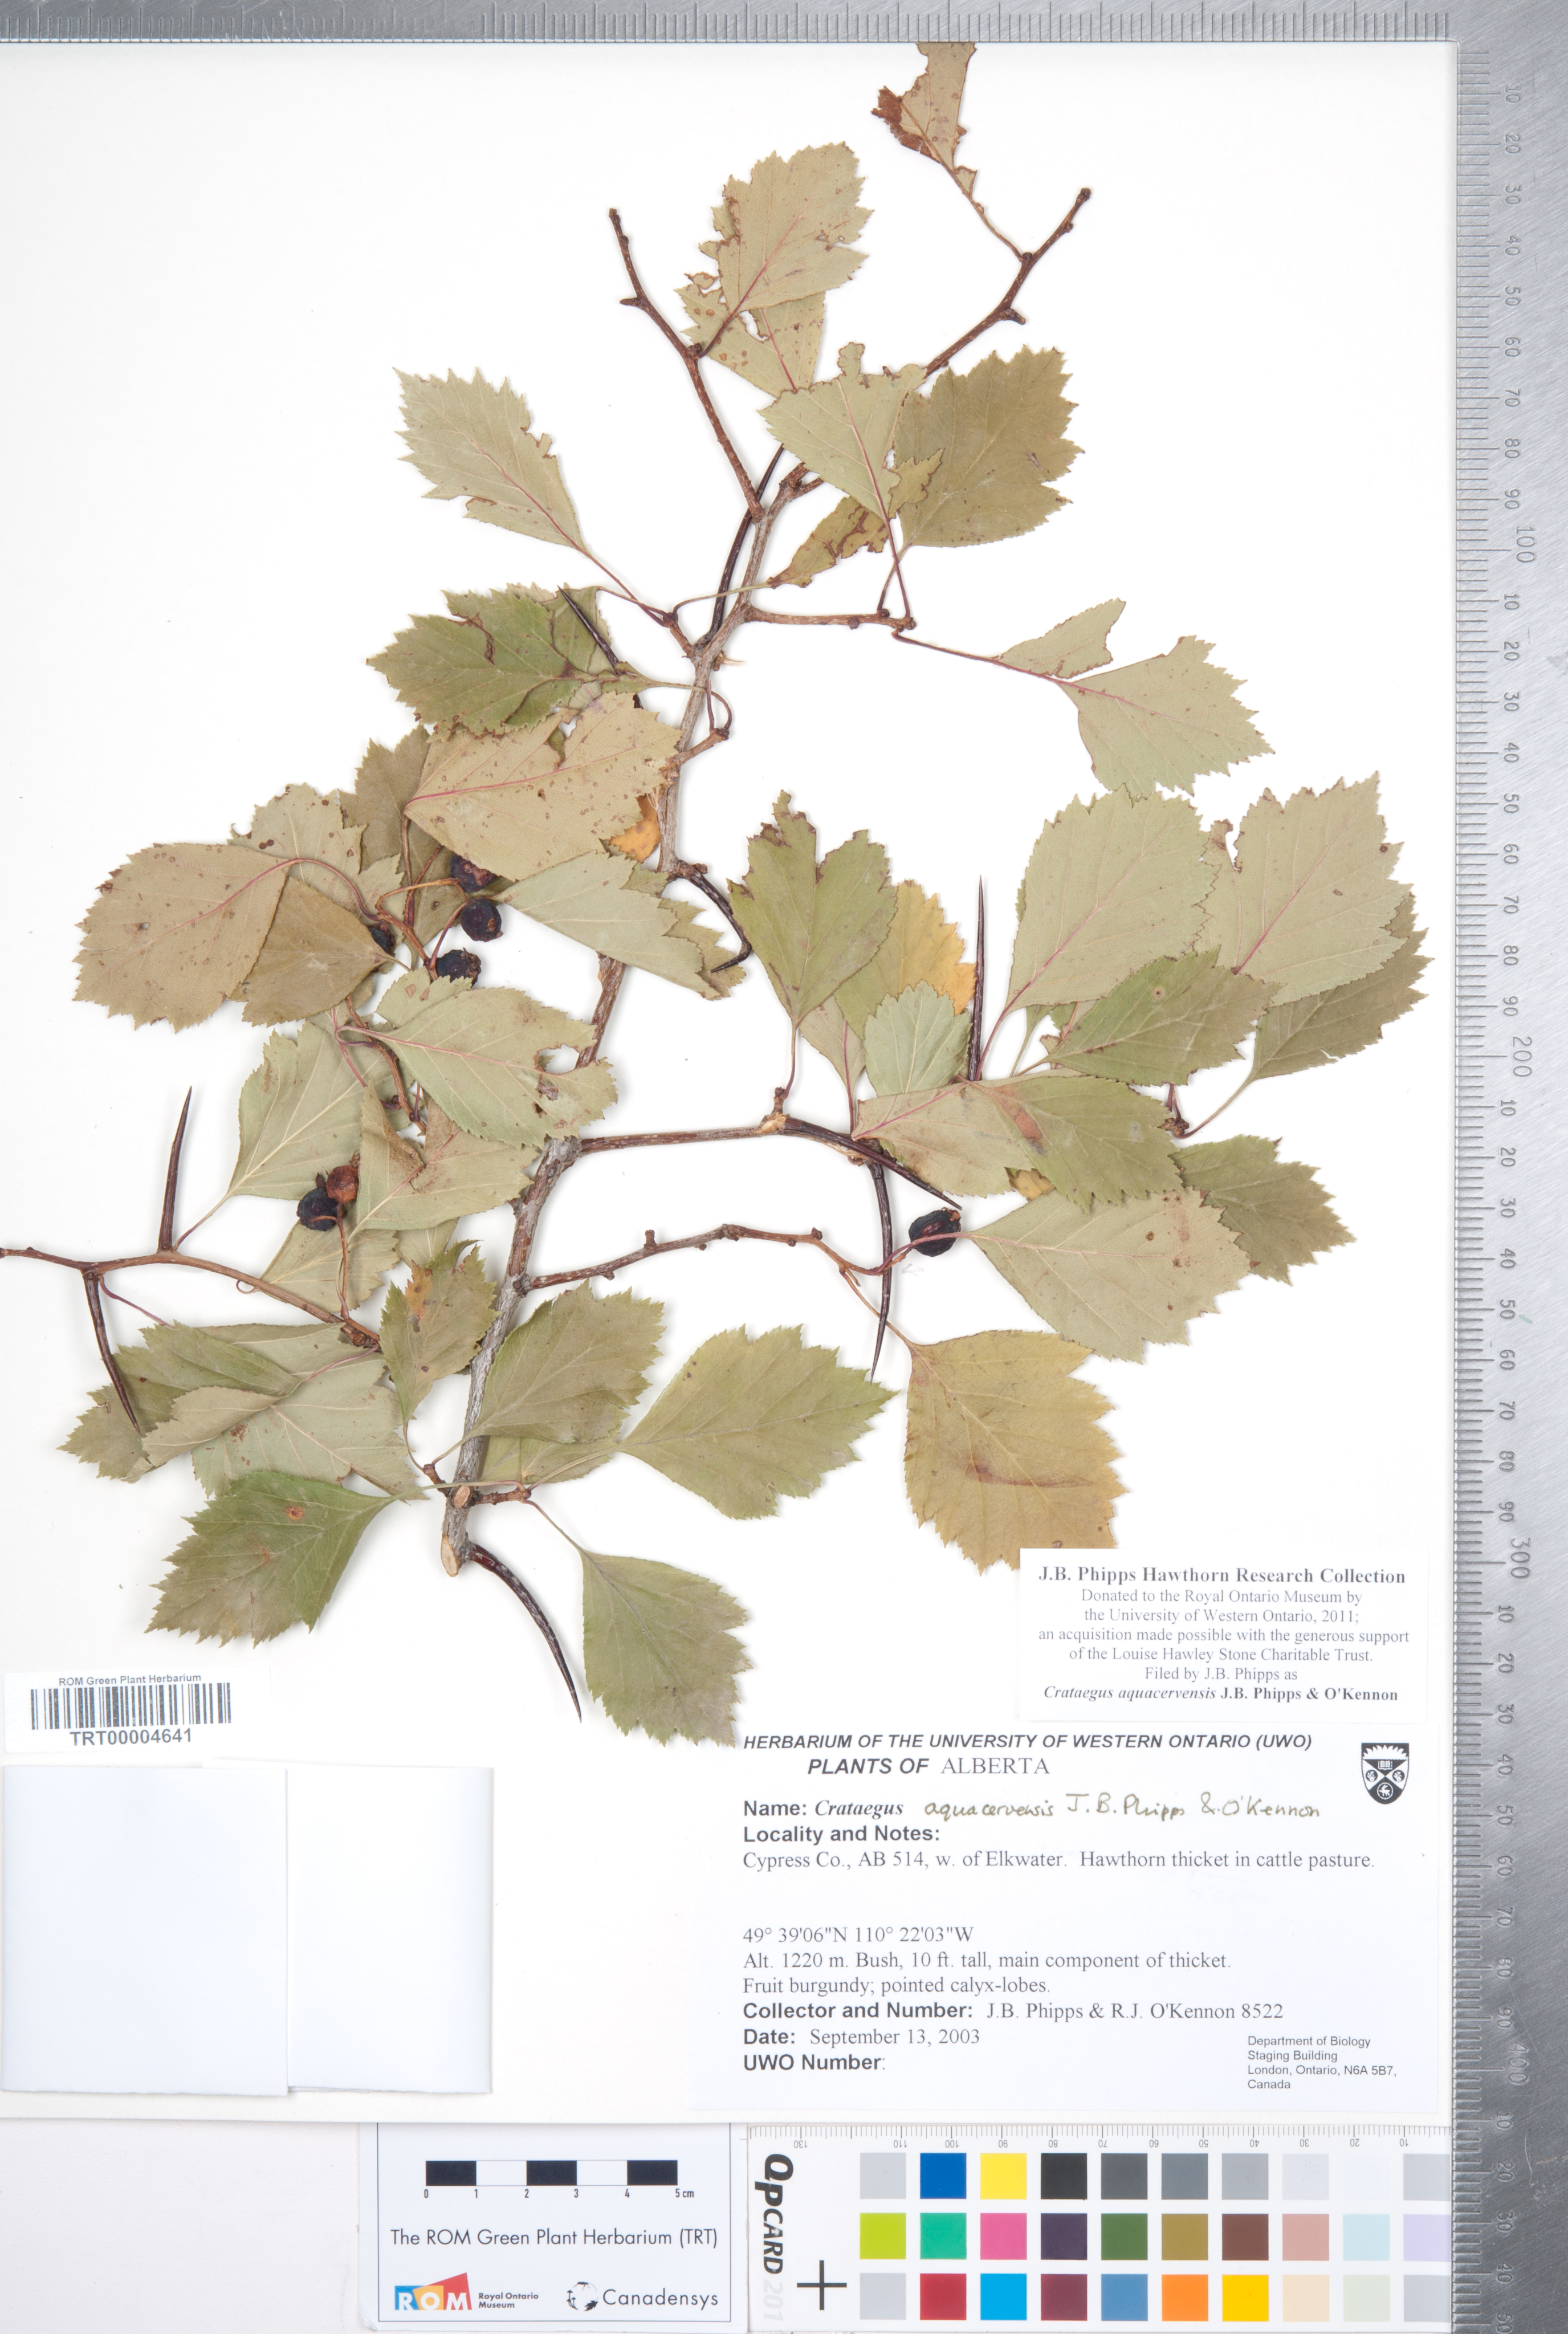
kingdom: Plantae
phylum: Tracheophyta
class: Magnoliopsida
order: Rosales
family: Rosaceae
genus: Crataegus
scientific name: Crataegus aquacervensis
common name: Elkwater hawthorn
